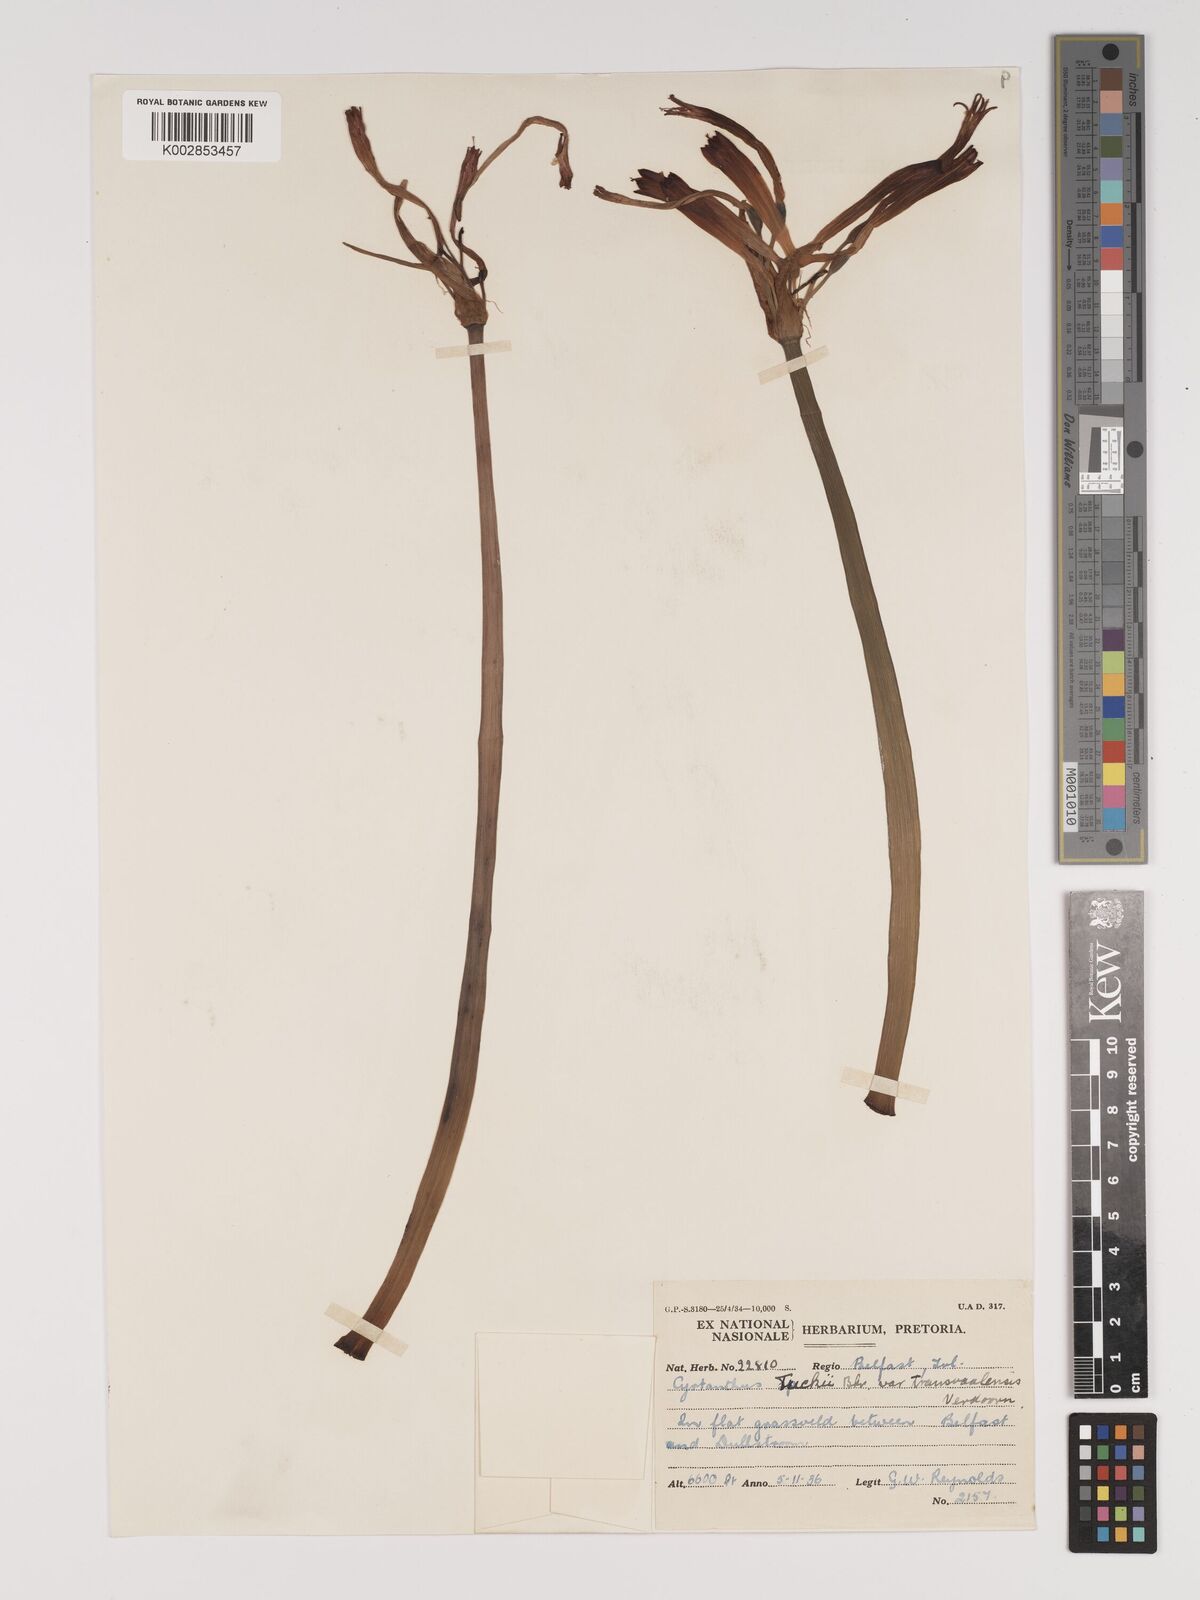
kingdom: Plantae
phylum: Tracheophyta
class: Liliopsida
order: Asparagales
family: Amaryllidaceae
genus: Cyrtanthus
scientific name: Cyrtanthus tuckii
